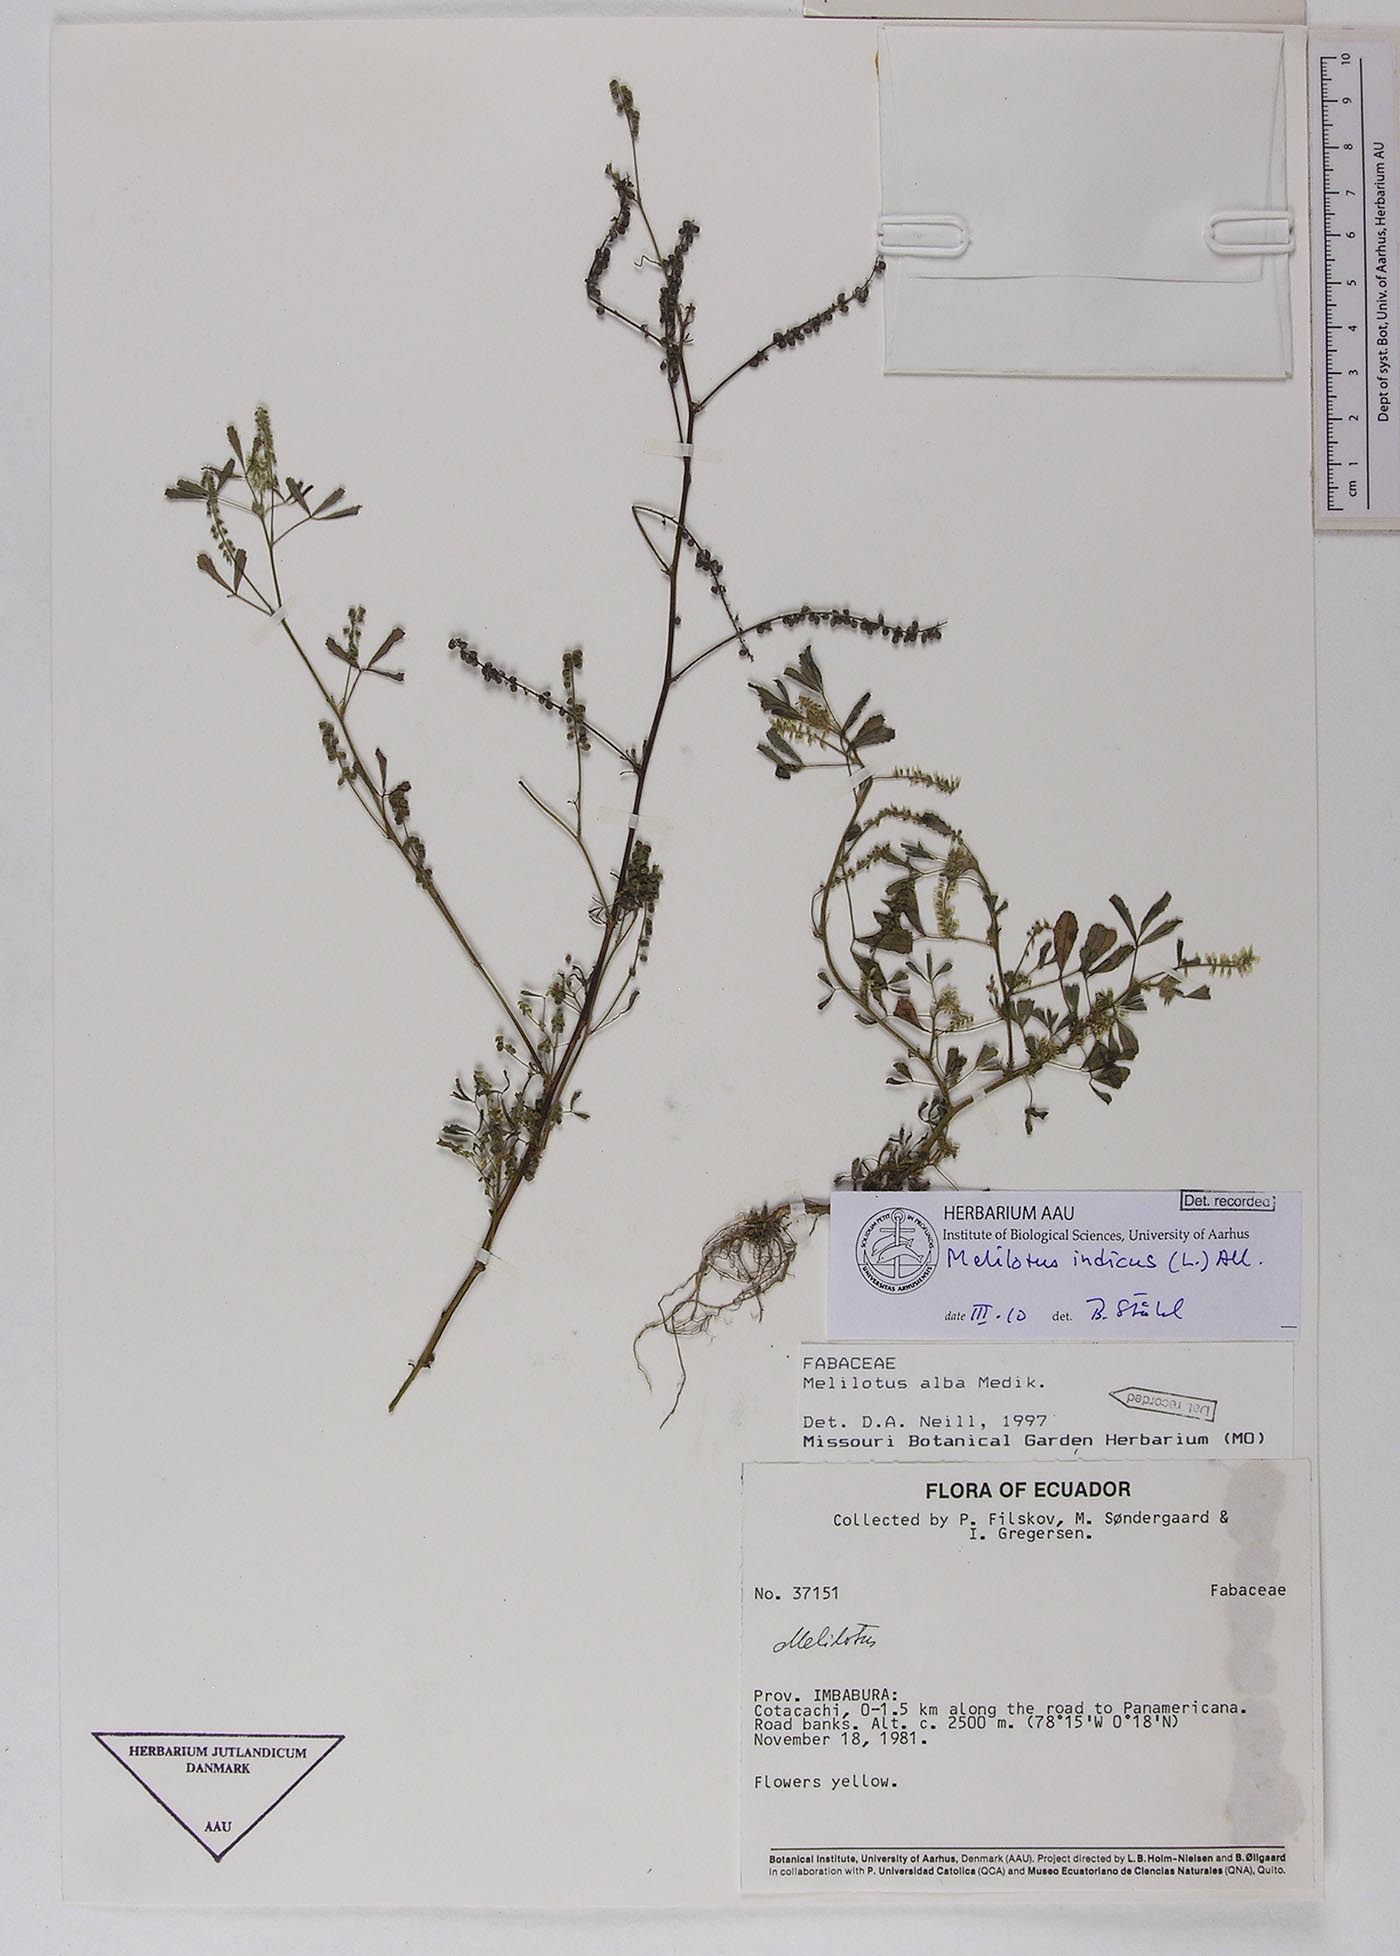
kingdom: Plantae
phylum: Tracheophyta
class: Magnoliopsida
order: Fabales
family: Fabaceae
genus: Melilotus
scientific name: Melilotus indicus
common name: Small melilot
